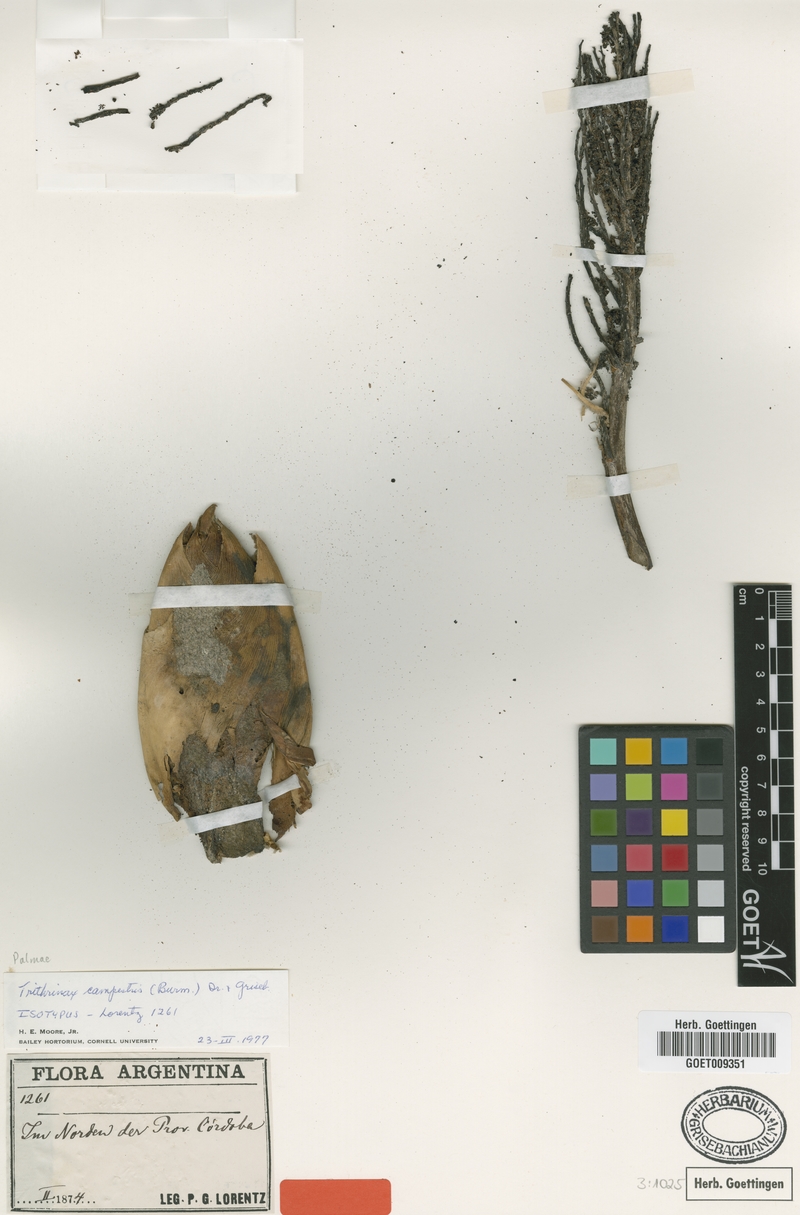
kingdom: Plantae
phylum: Tracheophyta
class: Liliopsida
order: Arecales
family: Arecaceae
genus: Trithrinax
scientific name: Trithrinax campestris
